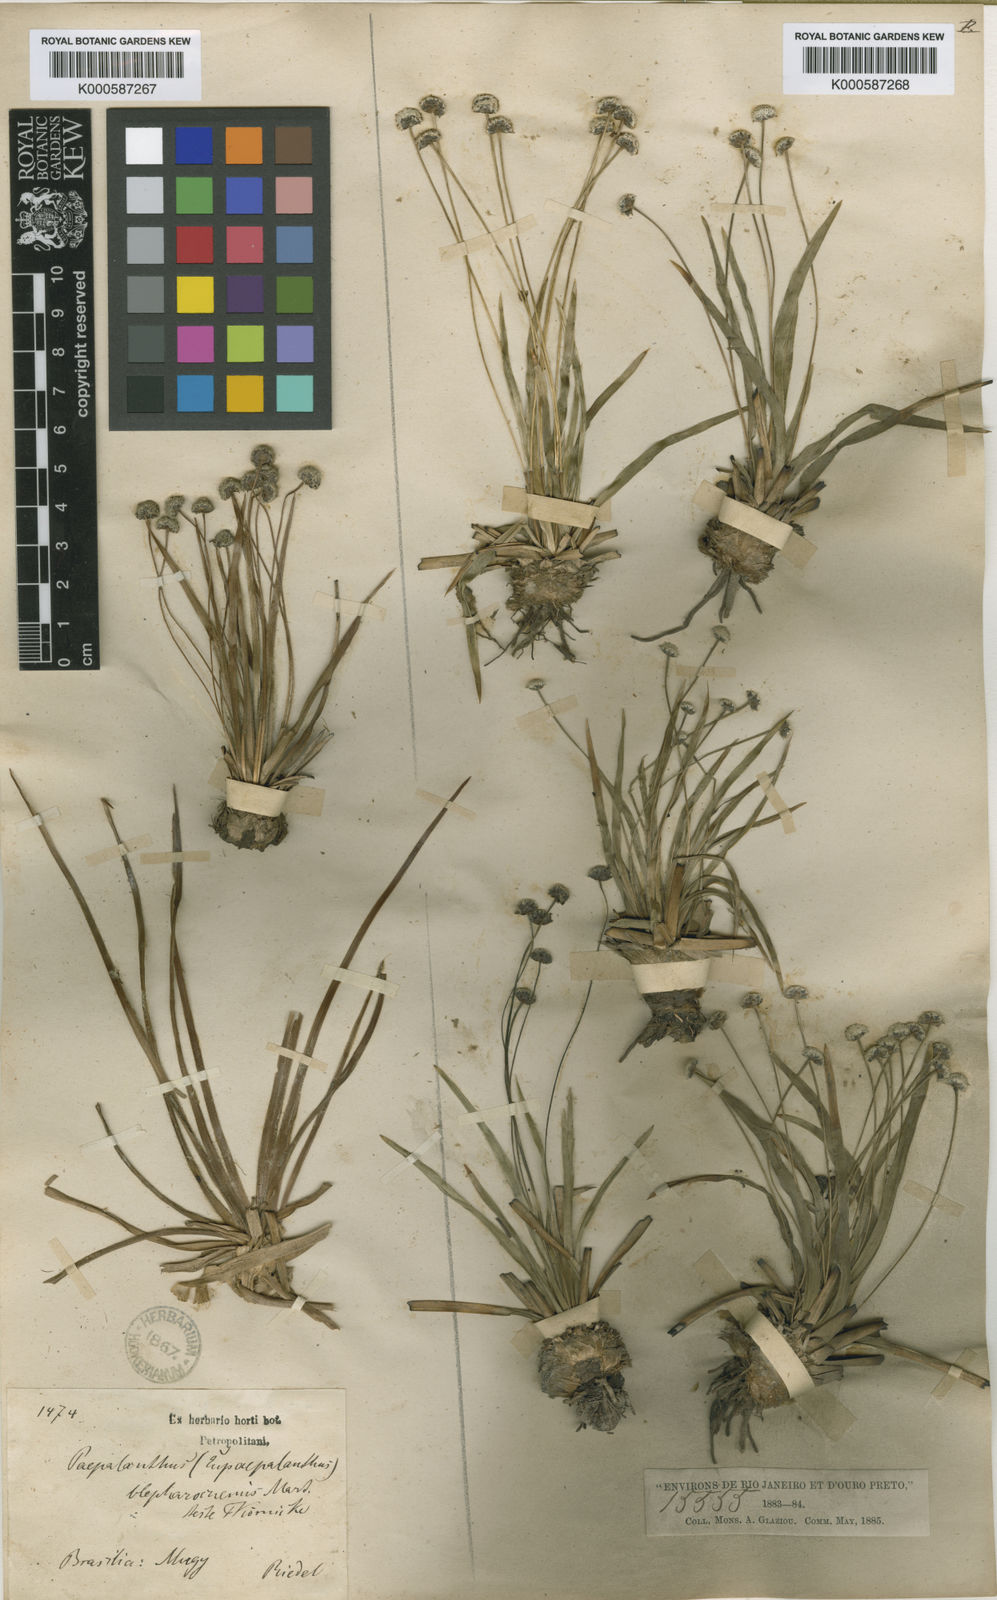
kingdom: Plantae
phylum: Tracheophyta
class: Liliopsida
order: Poales
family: Eriocaulaceae
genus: Paepalanthus
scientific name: Paepalanthus
